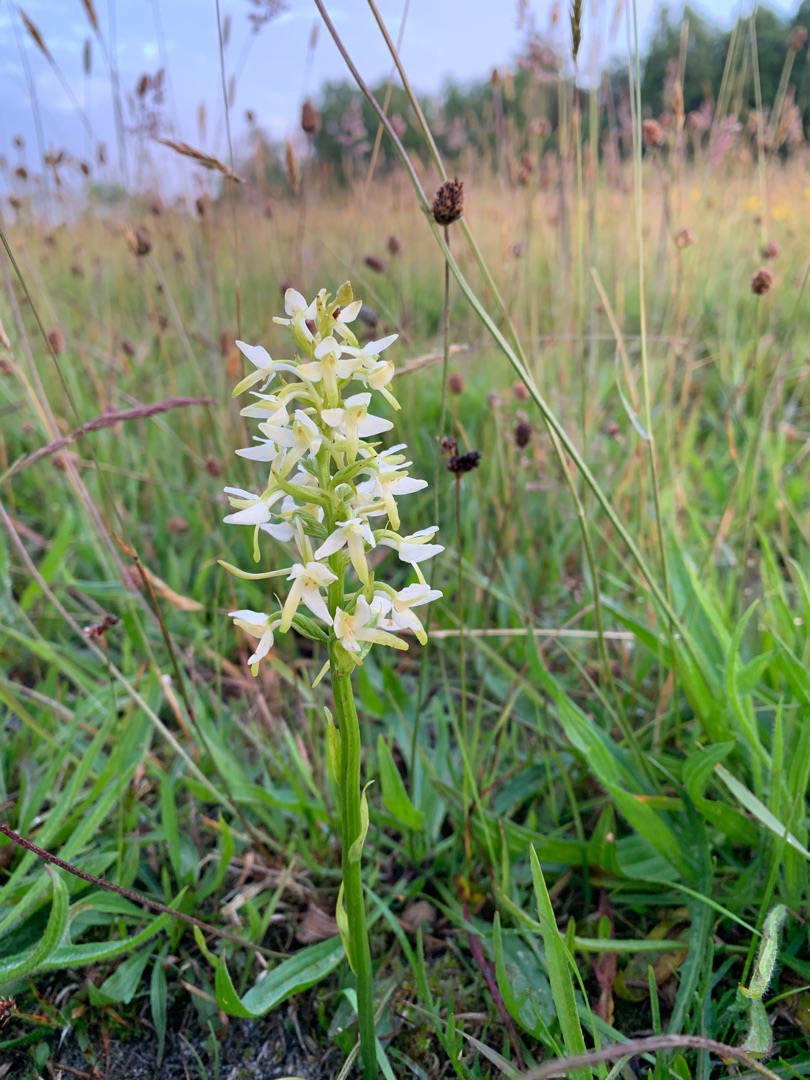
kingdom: Plantae
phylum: Tracheophyta
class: Liliopsida
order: Asparagales
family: Orchidaceae
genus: Platanthera
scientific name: Platanthera bifolia
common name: Bakke-gøgelilje
